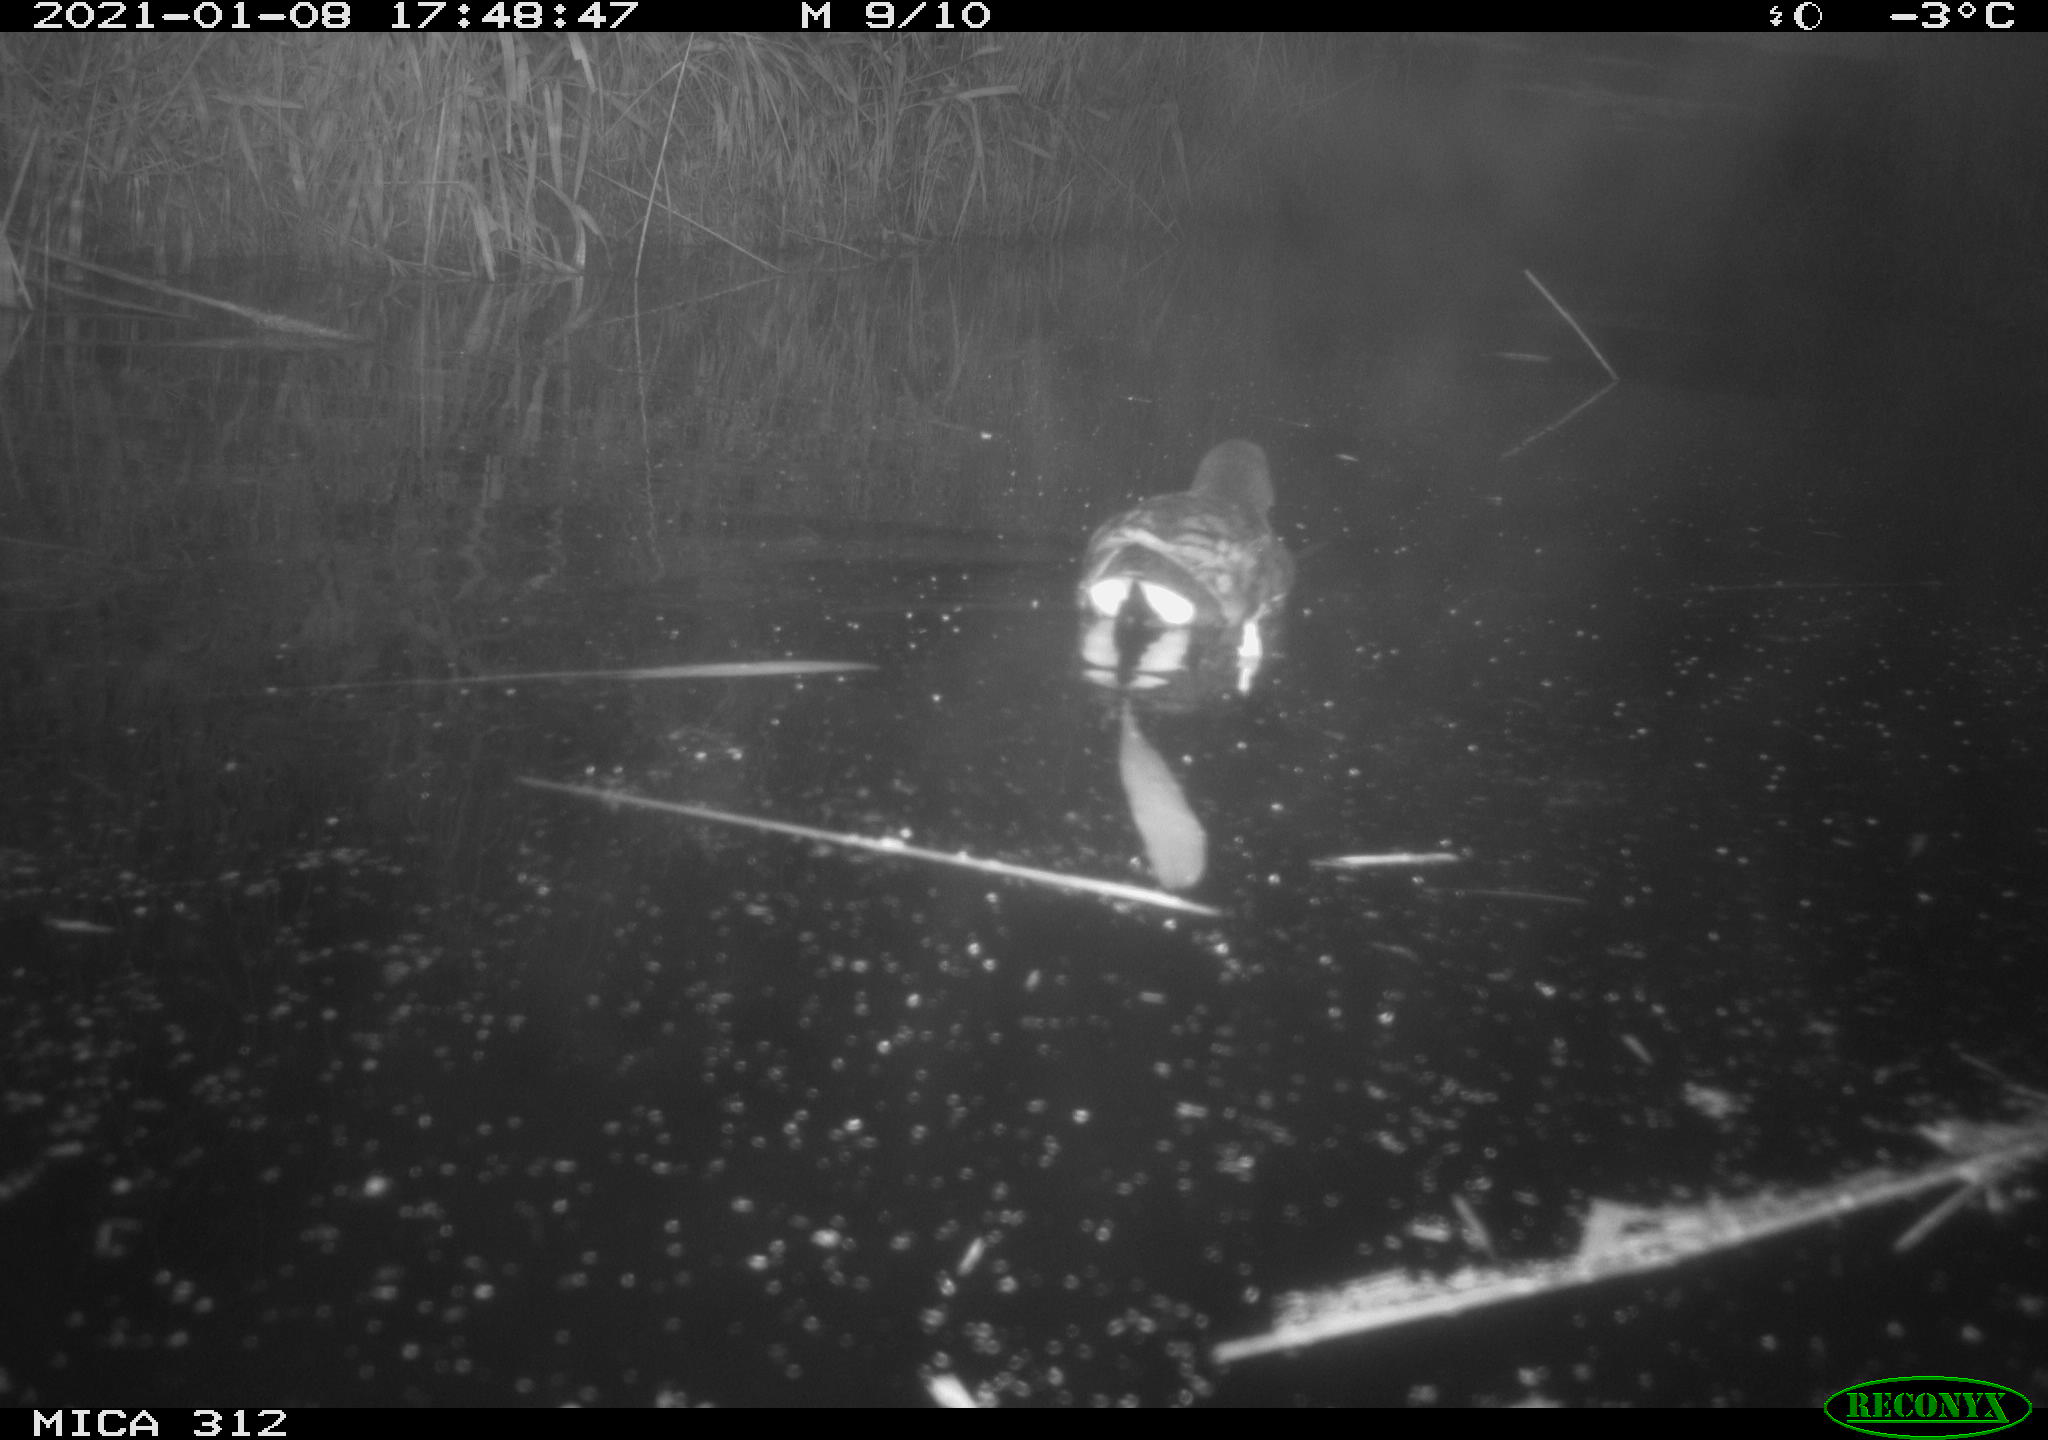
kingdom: Animalia
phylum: Chordata
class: Aves
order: Gruiformes
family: Rallidae
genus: Gallinula
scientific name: Gallinula chloropus
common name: Common moorhen
